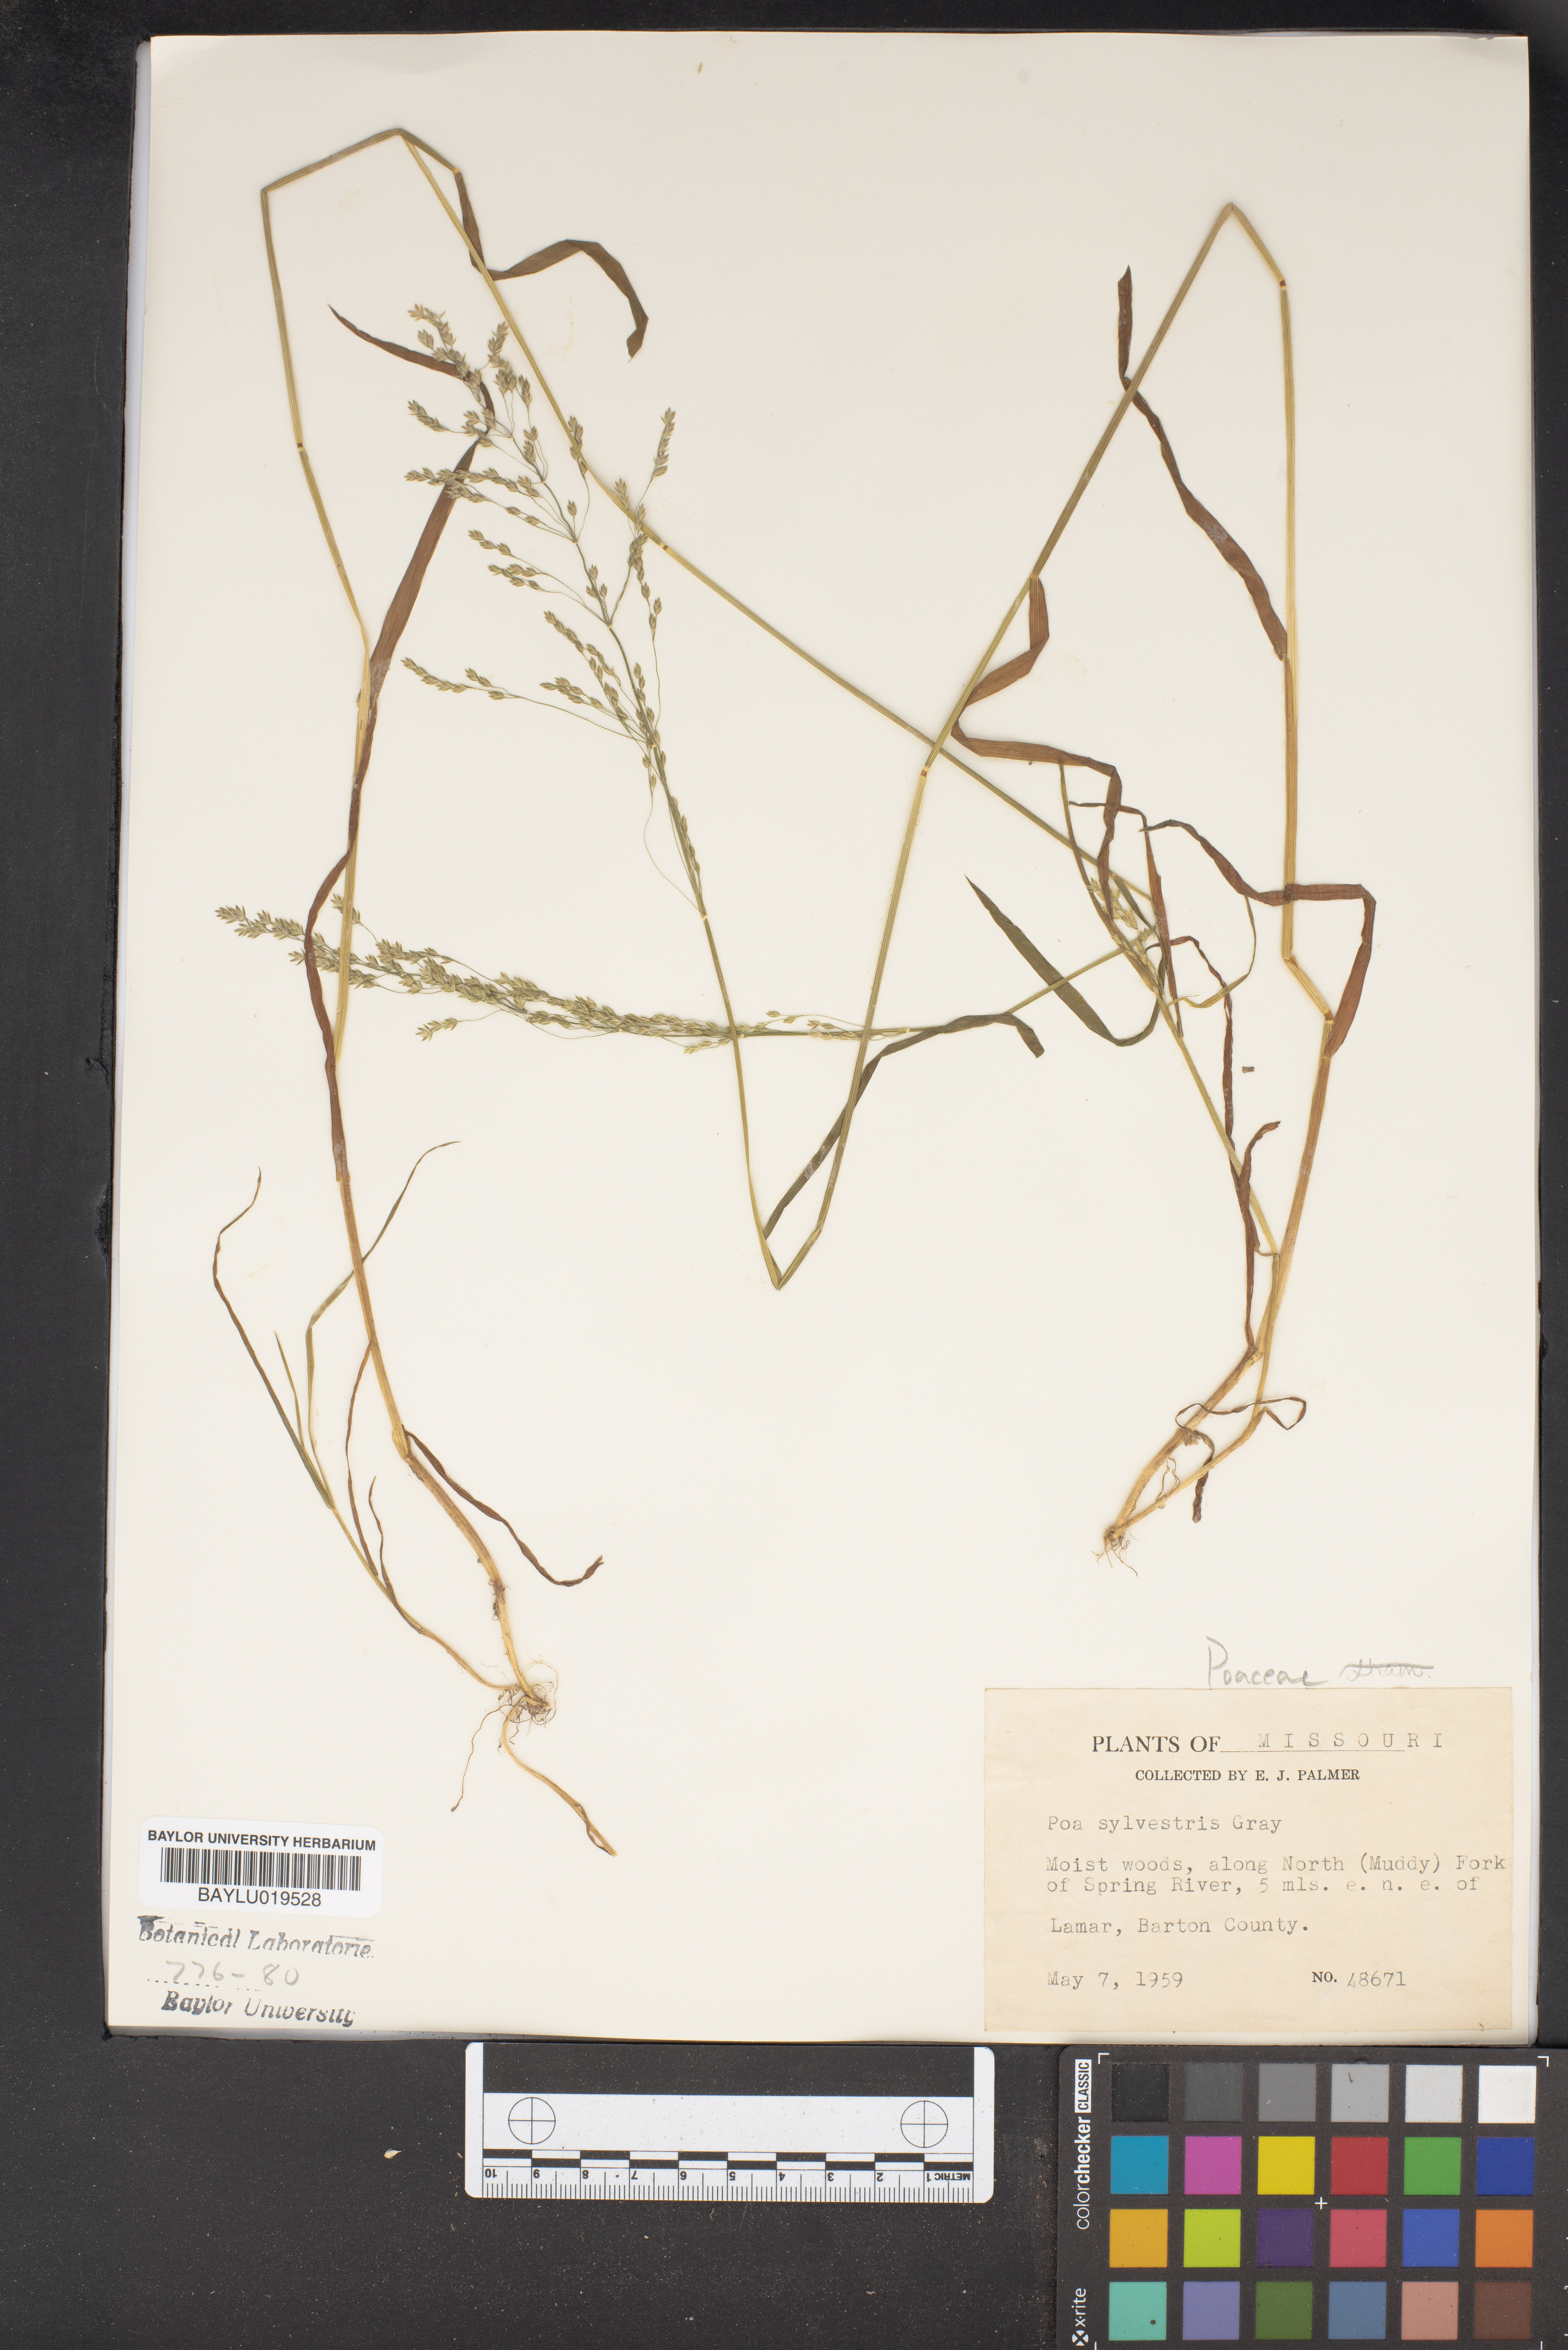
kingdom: Plantae
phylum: Tracheophyta
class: Liliopsida
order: Poales
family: Poaceae
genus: Poa
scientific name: Poa sylvestris
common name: North american woodland bluegrass
